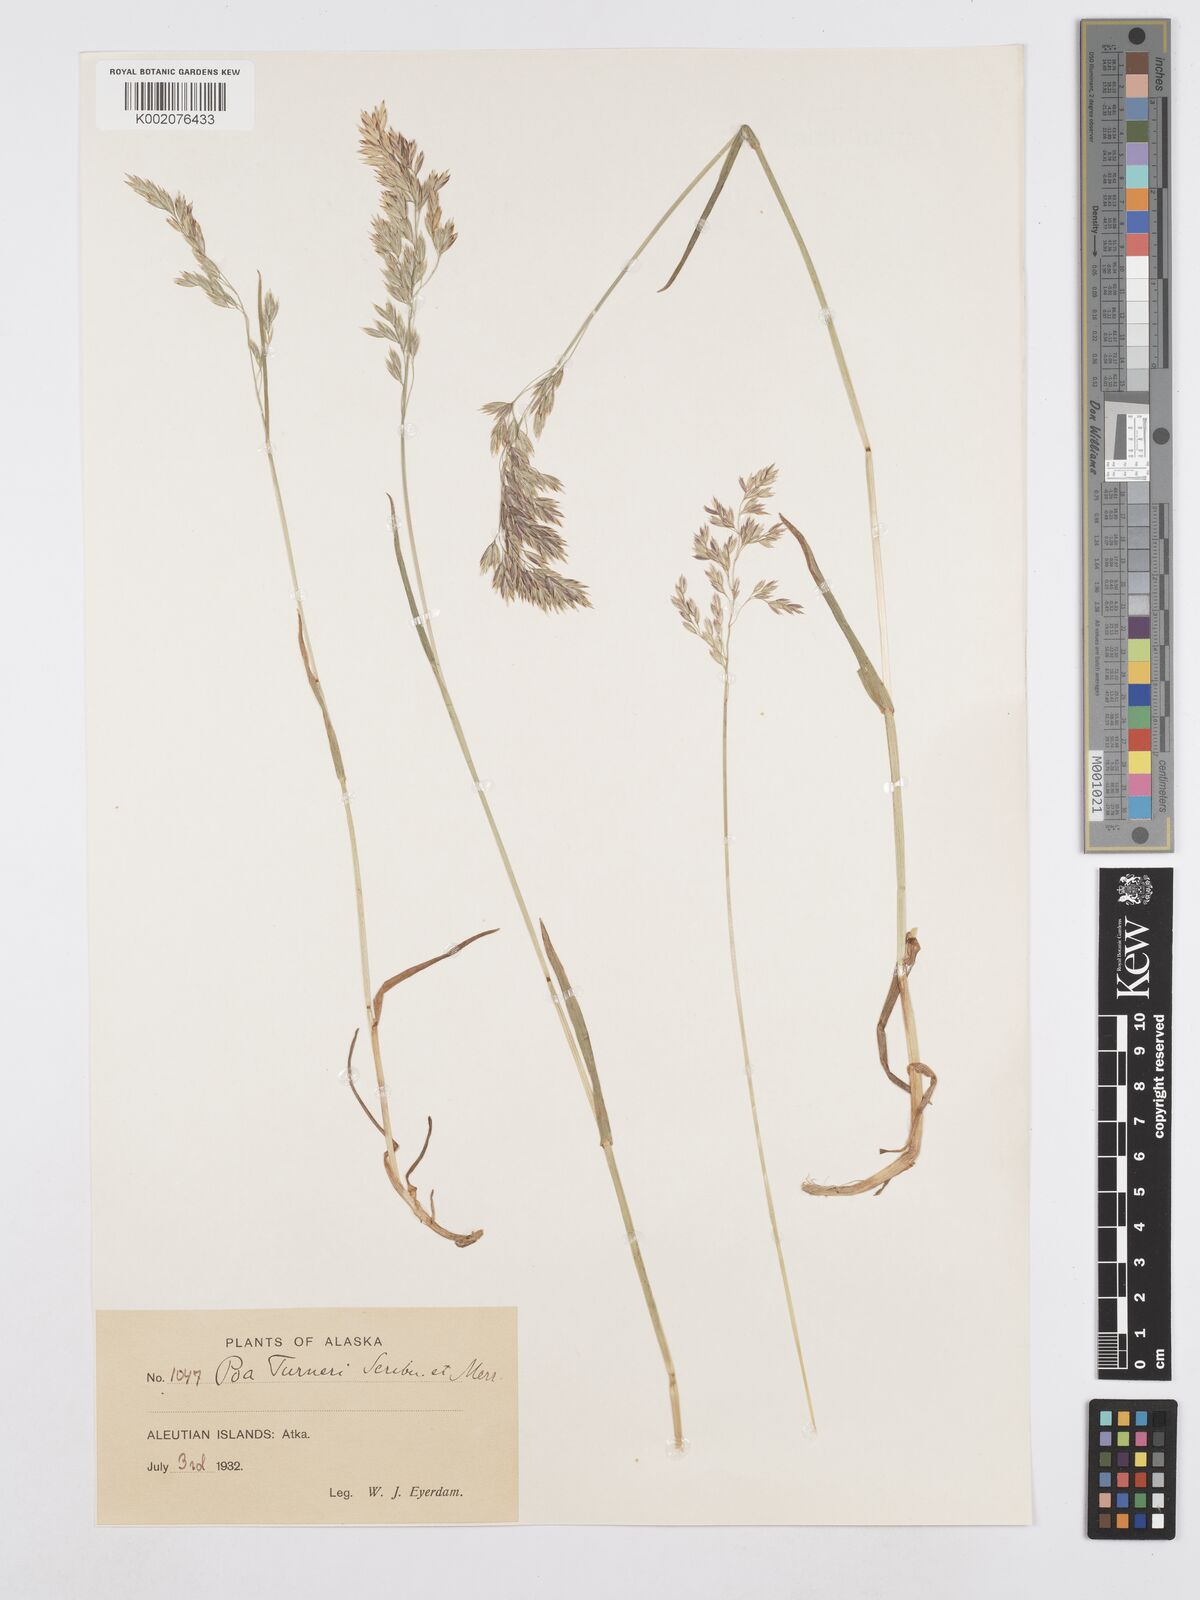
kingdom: Plantae
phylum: Tracheophyta
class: Liliopsida
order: Poales
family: Poaceae
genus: Poa
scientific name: Poa macrocalyx
